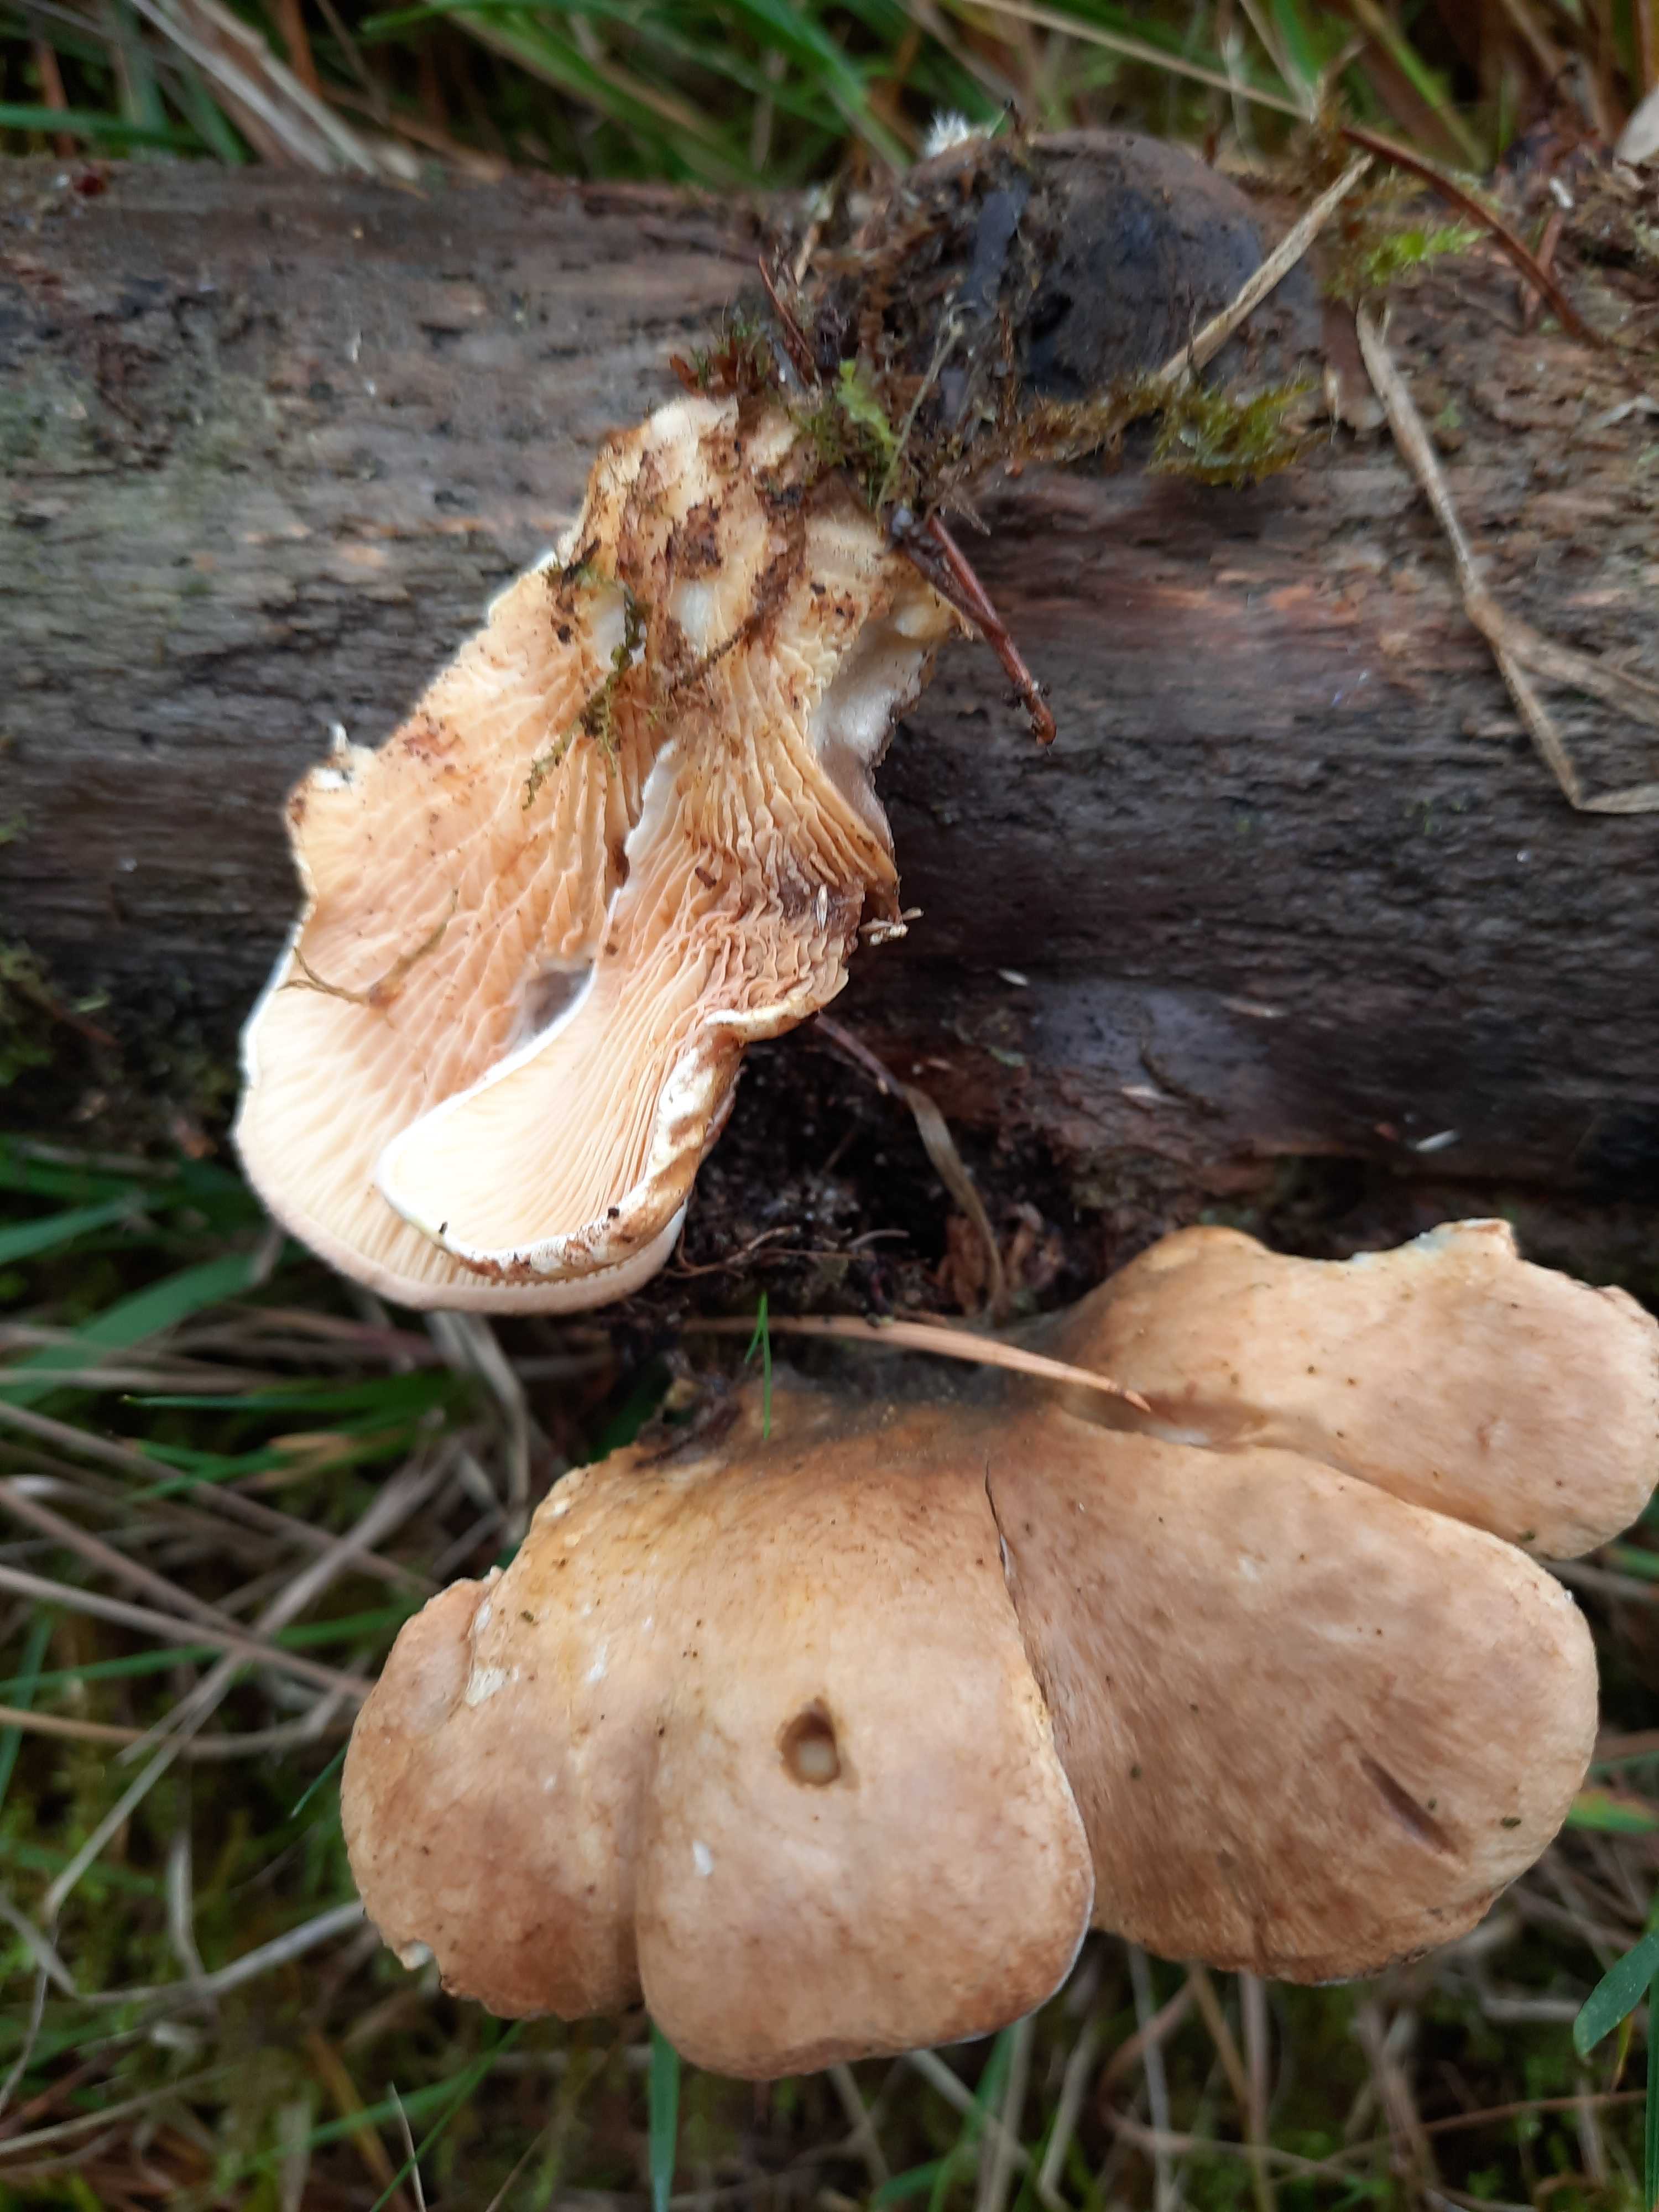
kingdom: Fungi
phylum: Basidiomycota
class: Agaricomycetes
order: Boletales
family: Tapinellaceae
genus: Tapinella
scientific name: Tapinella panuoides
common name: tømmer-viftesvamp
